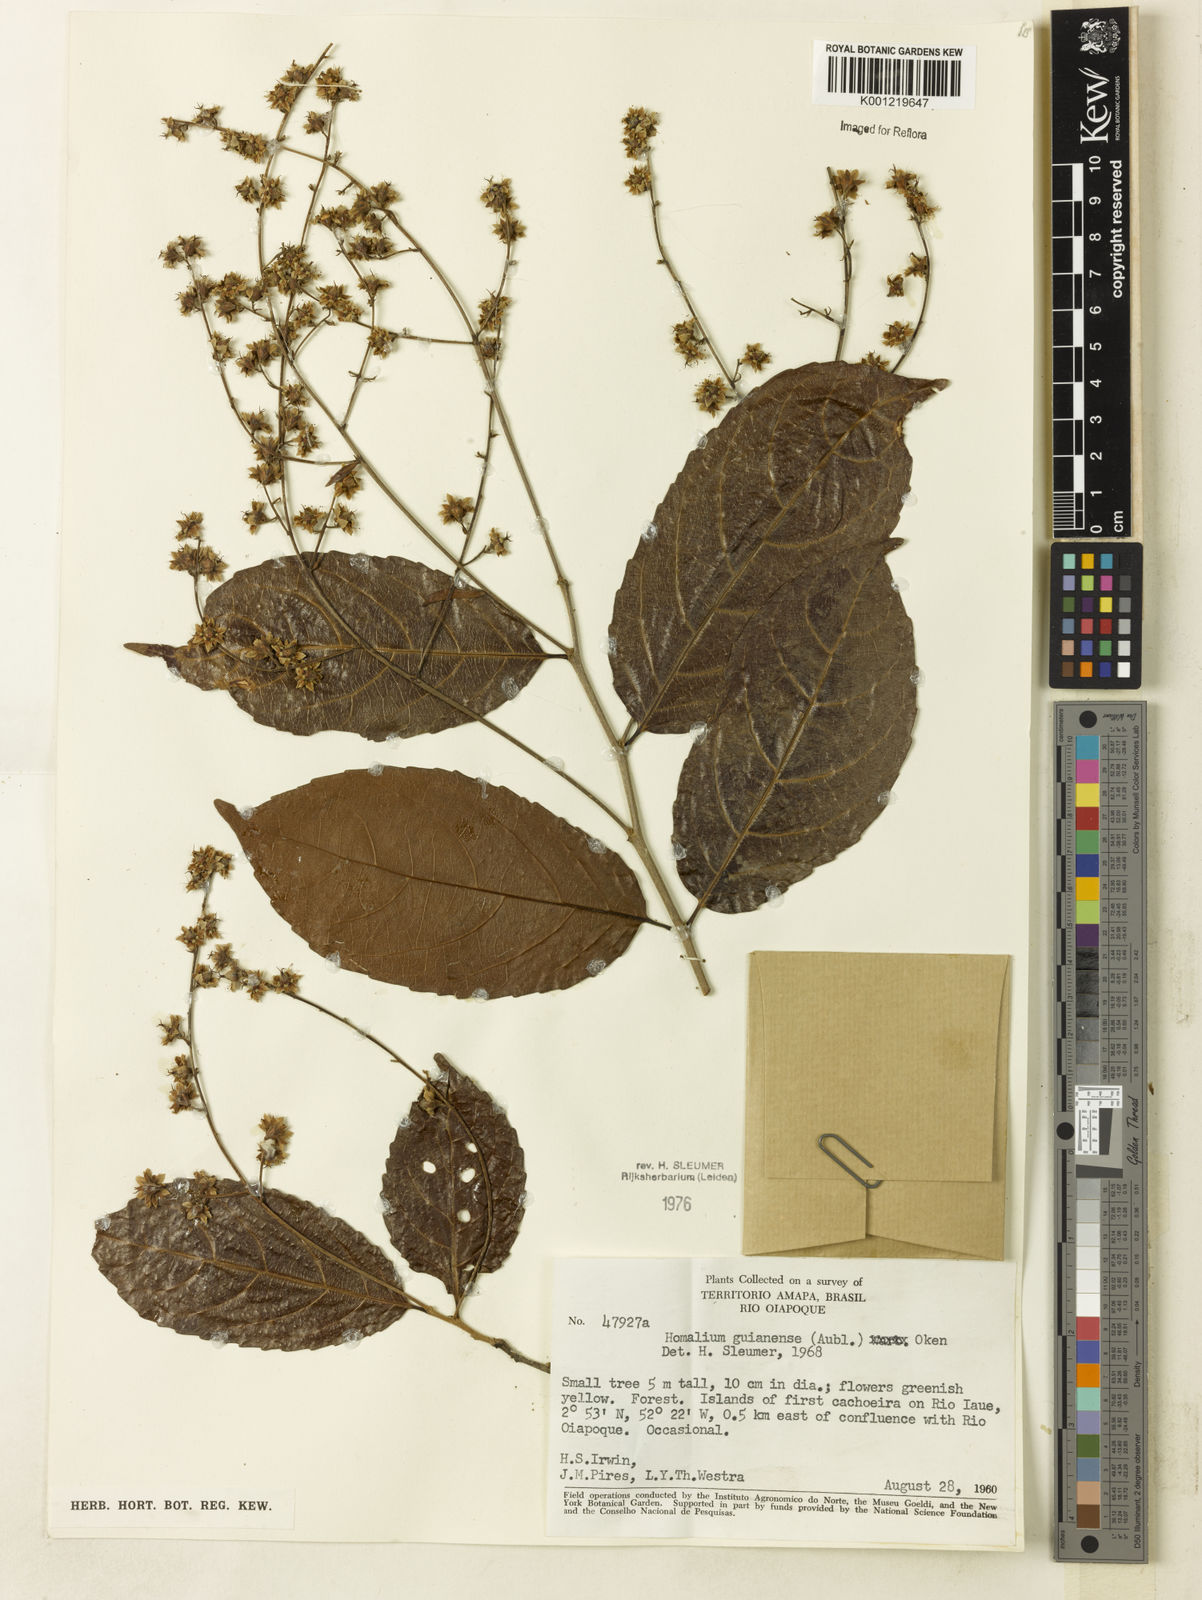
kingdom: Plantae
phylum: Tracheophyta
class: Magnoliopsida
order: Malpighiales
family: Salicaceae
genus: Homalium
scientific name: Homalium guianense
